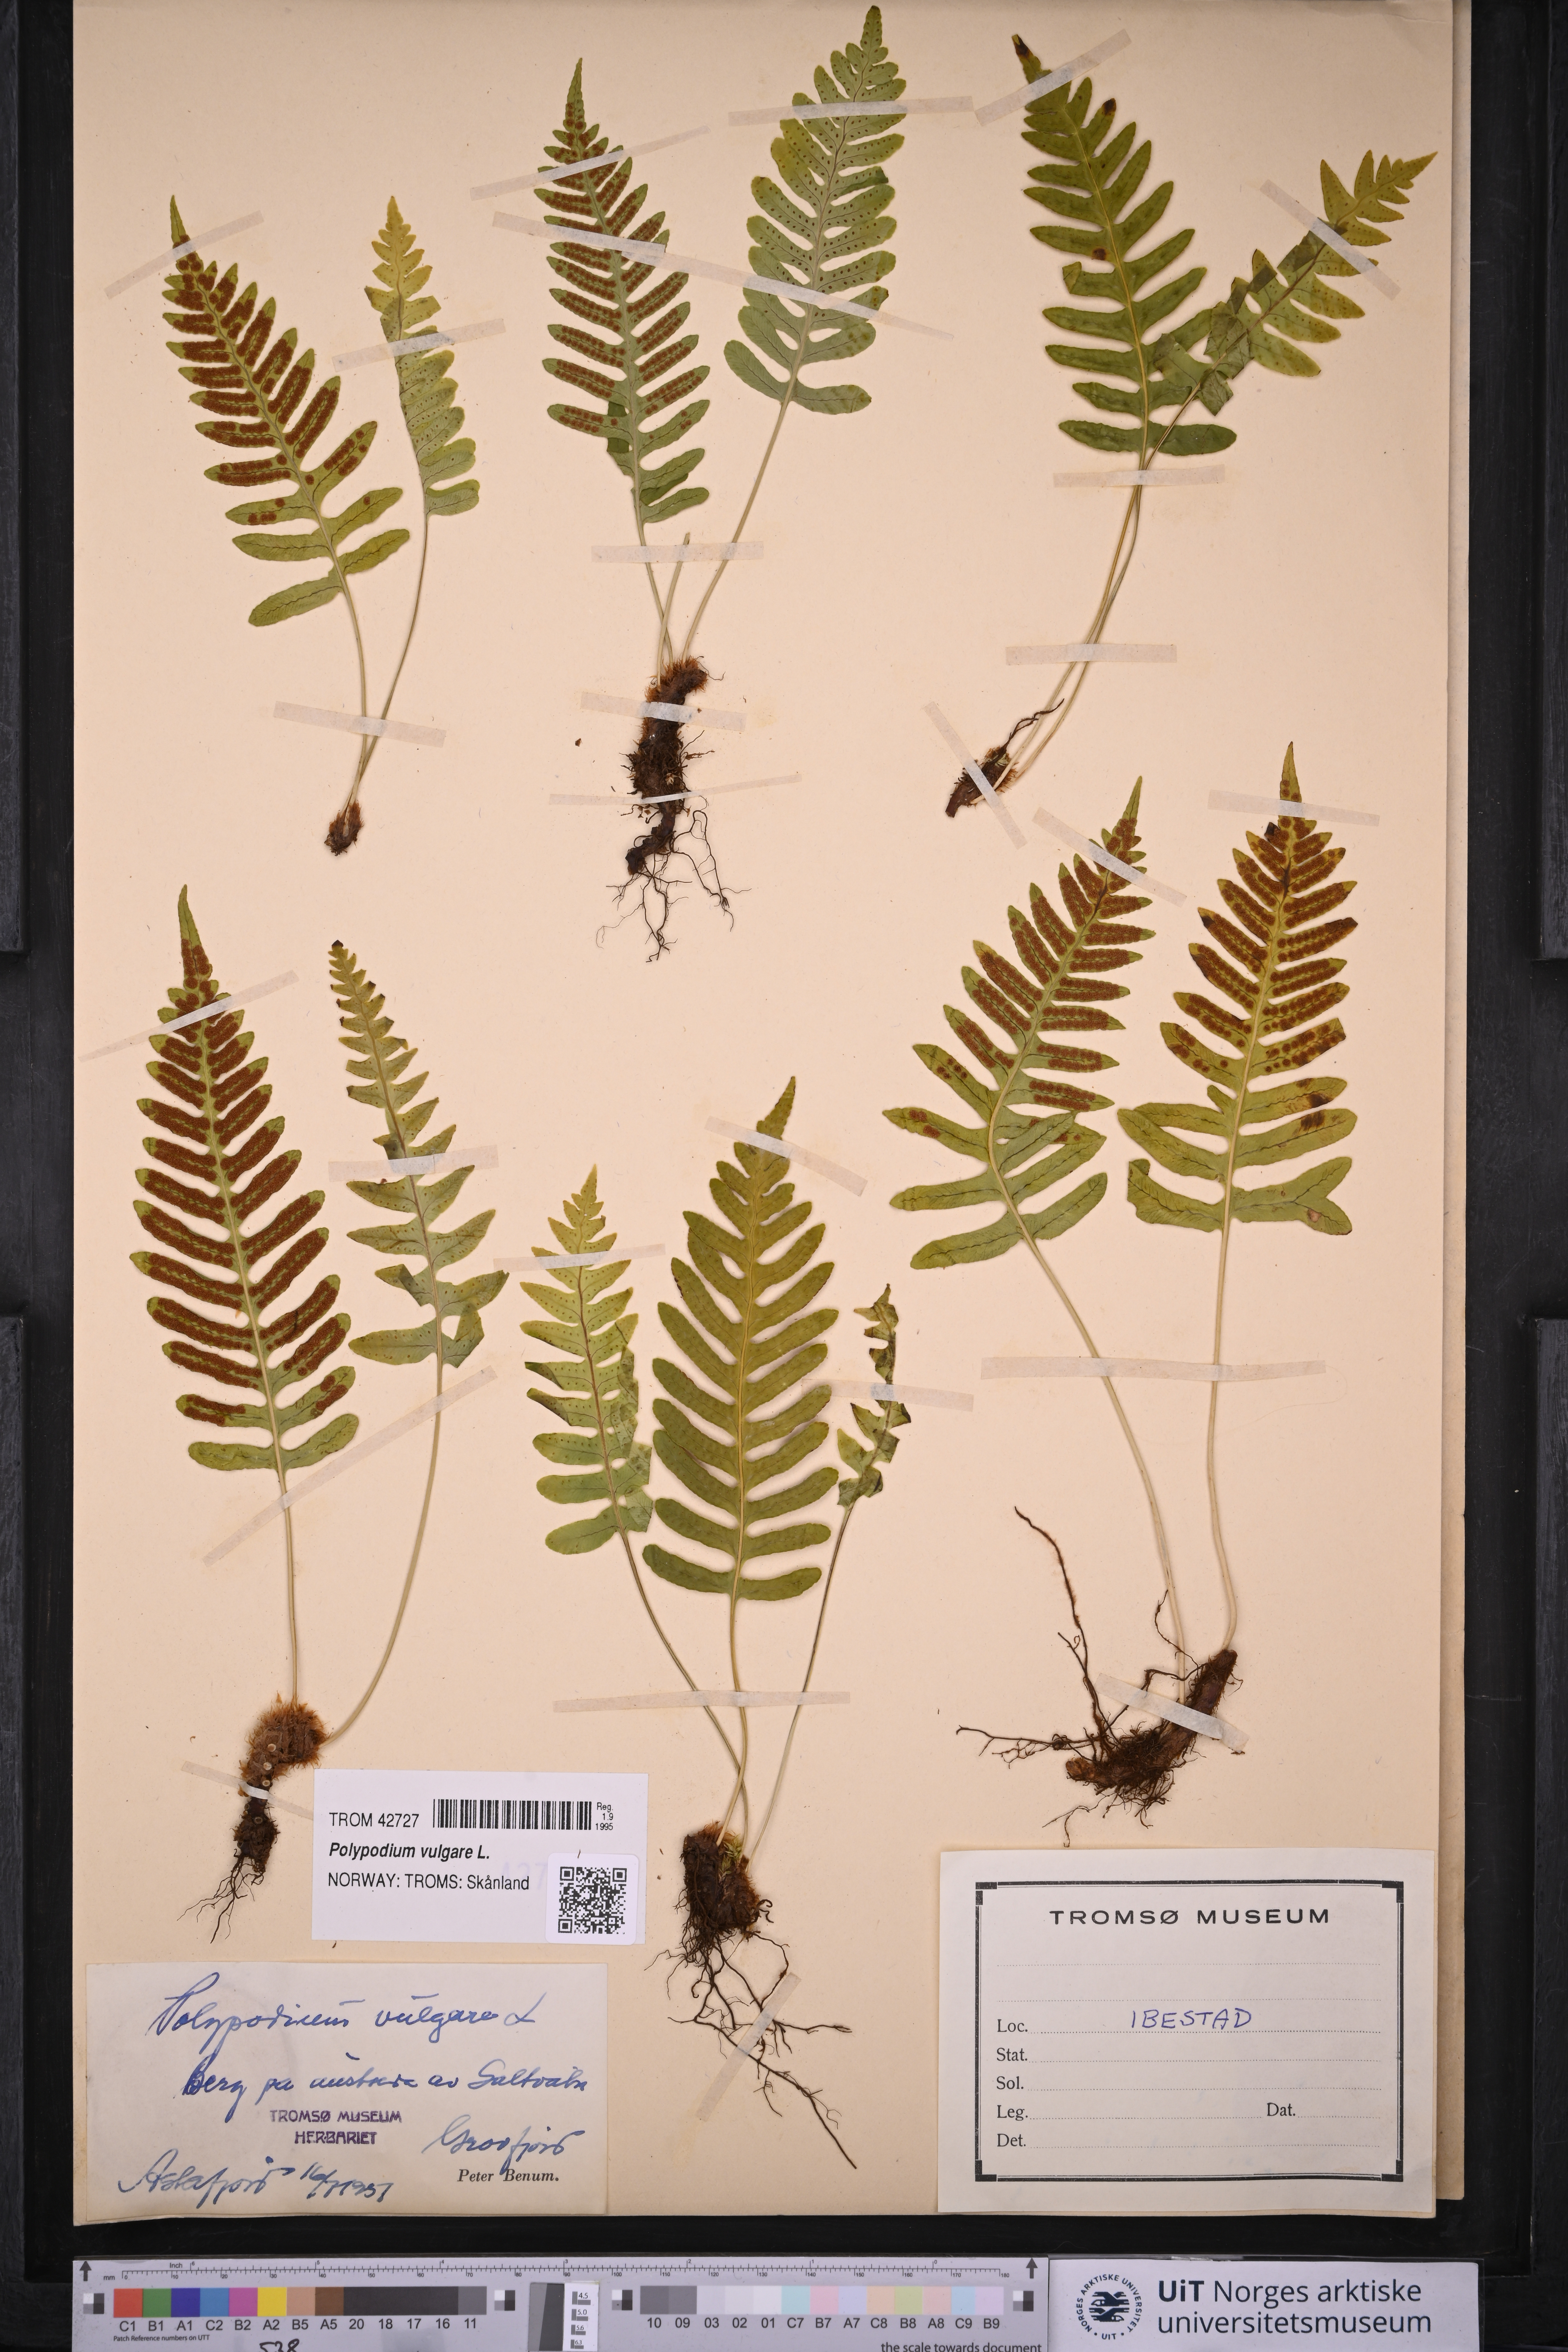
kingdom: Plantae
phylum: Tracheophyta
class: Polypodiopsida
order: Polypodiales
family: Polypodiaceae
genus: Polypodium
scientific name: Polypodium vulgare
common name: Common polypody
